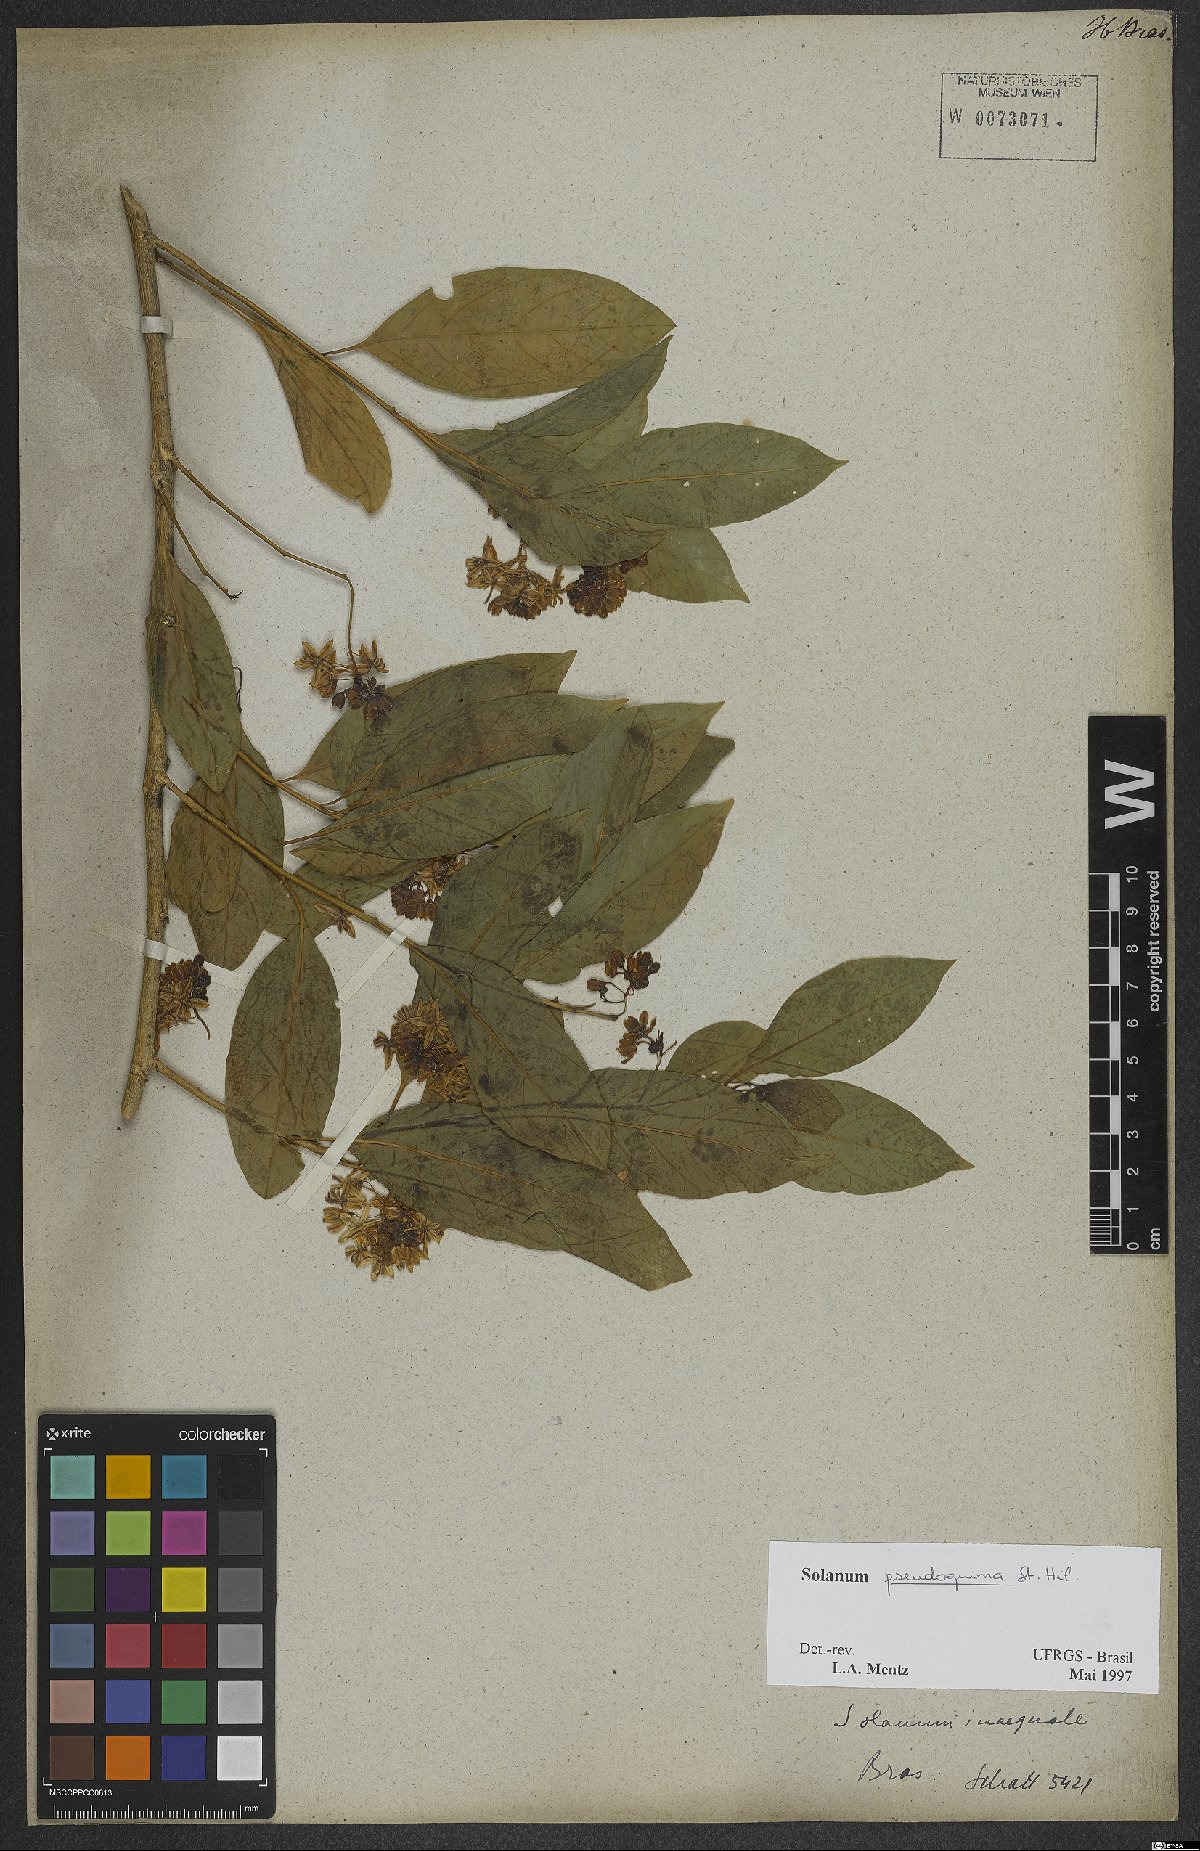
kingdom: Plantae
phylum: Tracheophyta
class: Magnoliopsida
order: Solanales
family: Solanaceae
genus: Solanum
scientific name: Solanum pseudoquina
